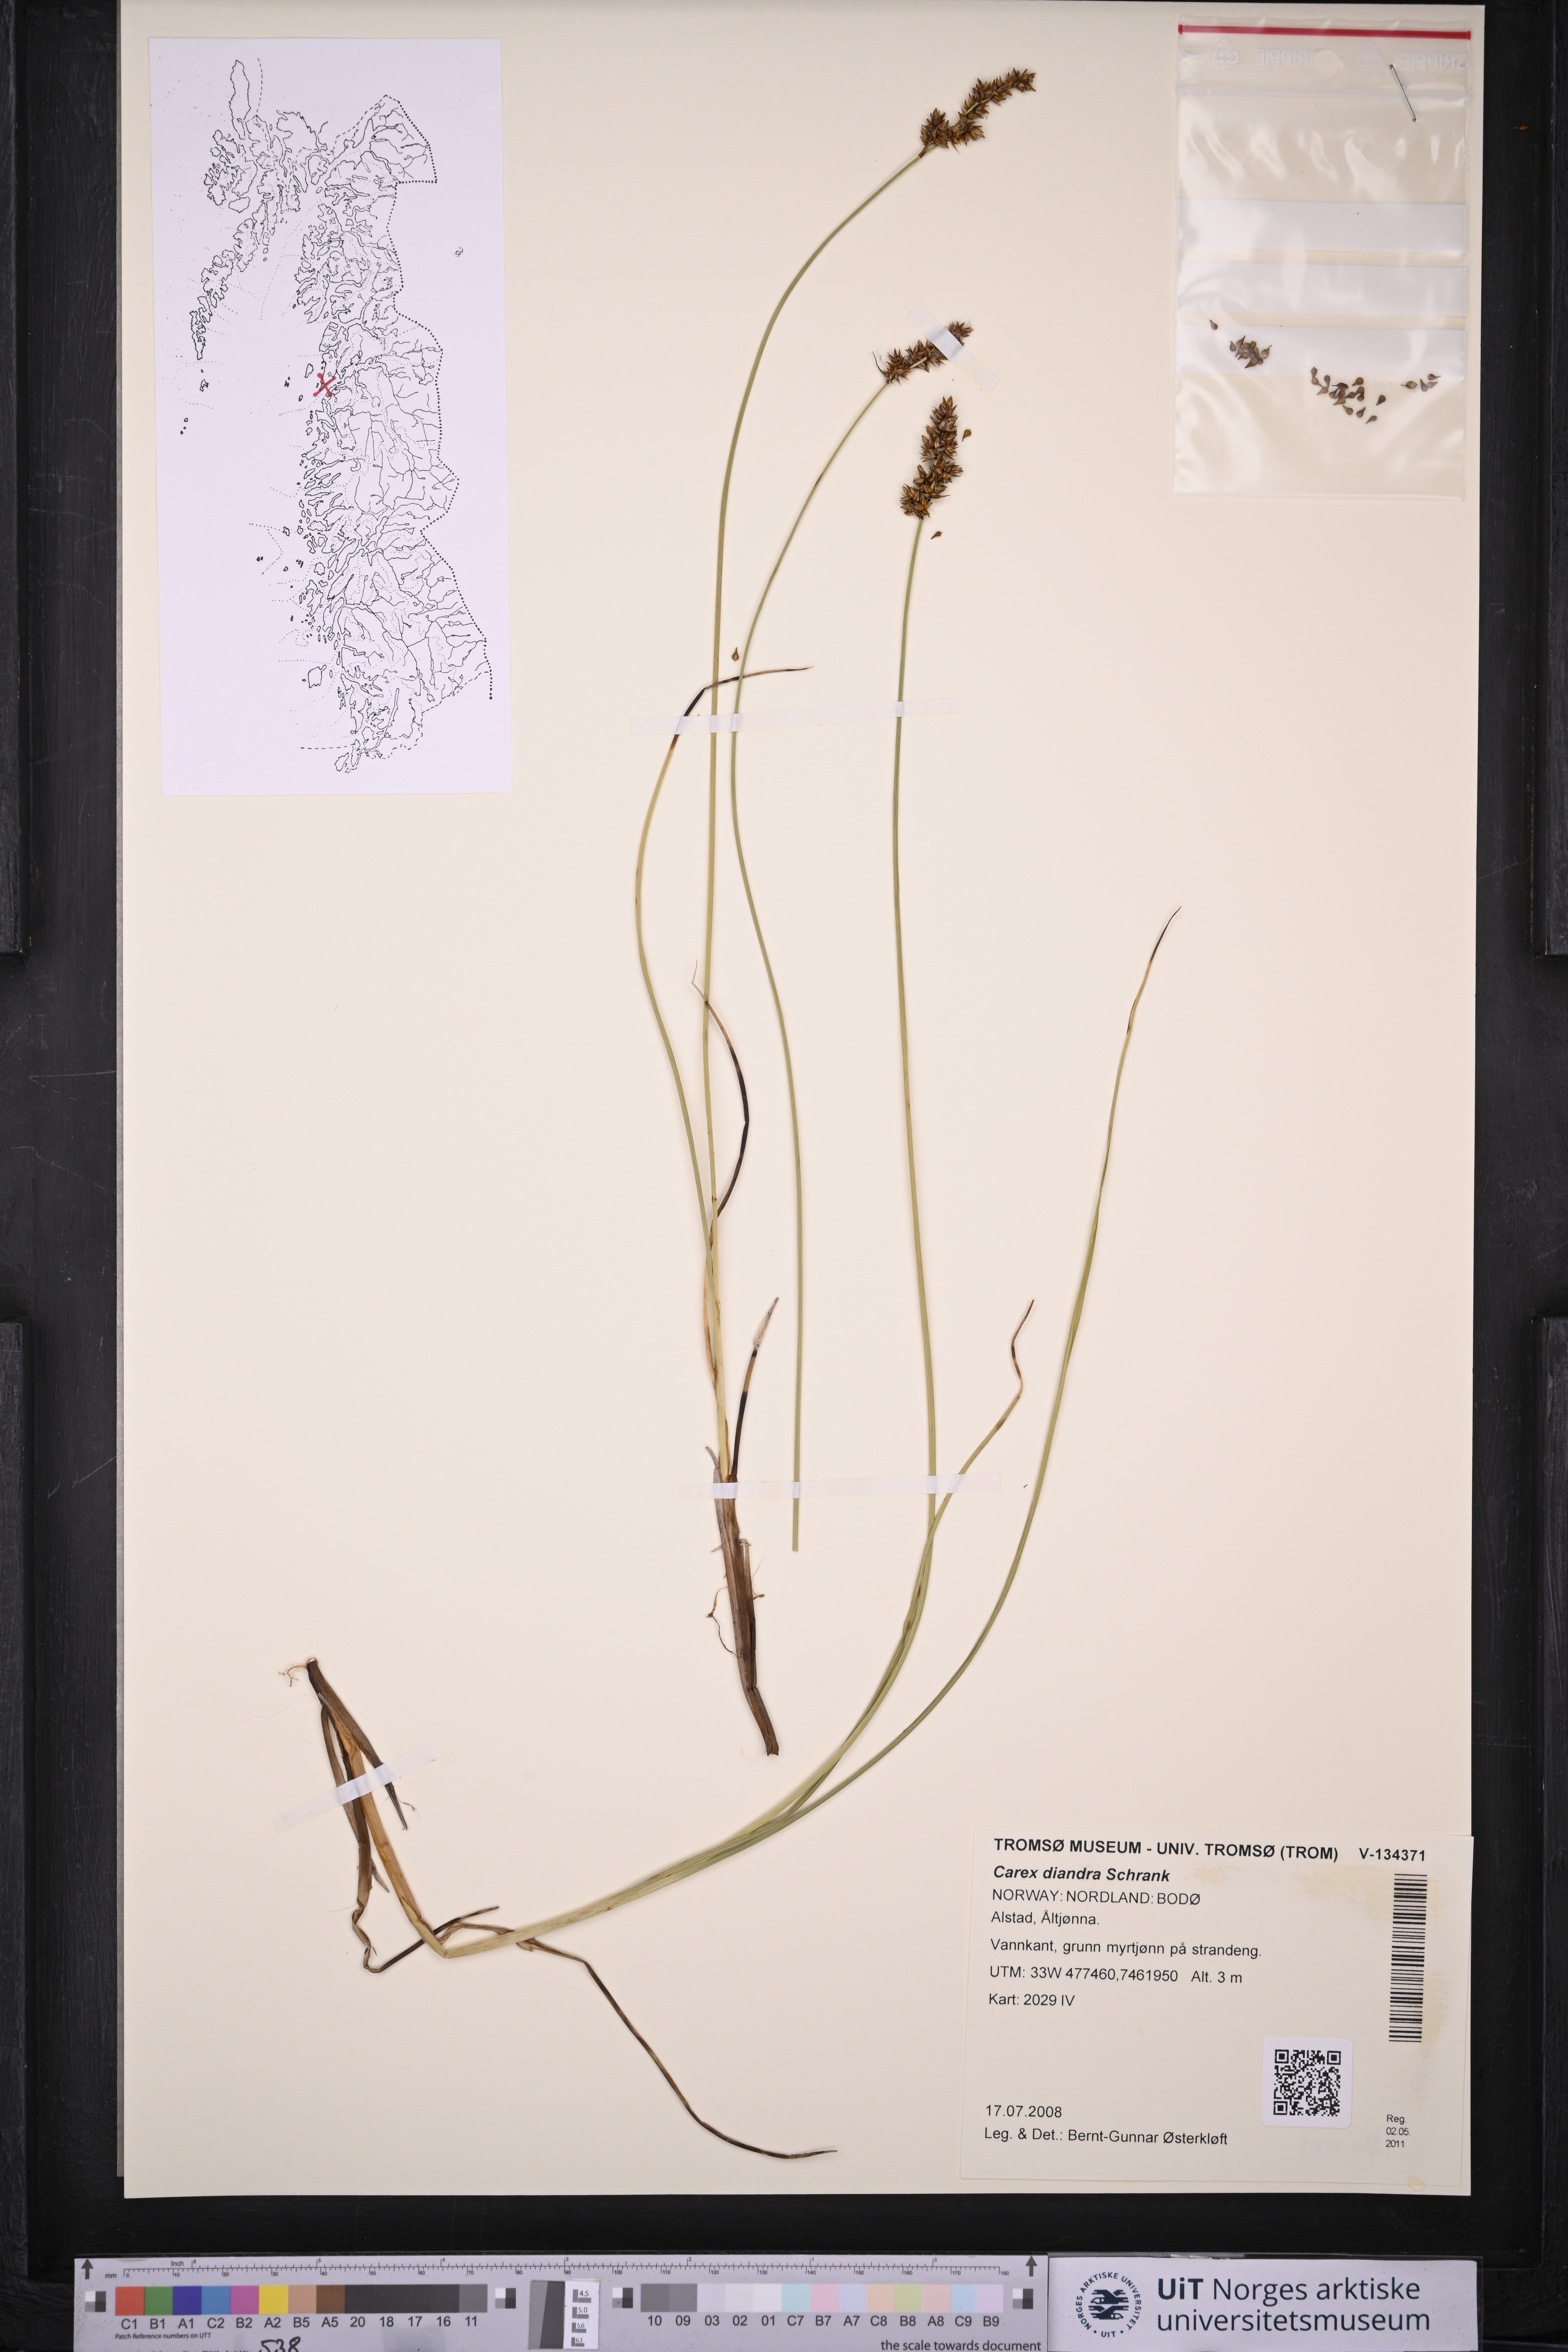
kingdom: Plantae
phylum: Tracheophyta
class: Liliopsida
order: Poales
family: Cyperaceae
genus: Carex
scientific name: Carex diandra
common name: Lesser tussock-sedge
